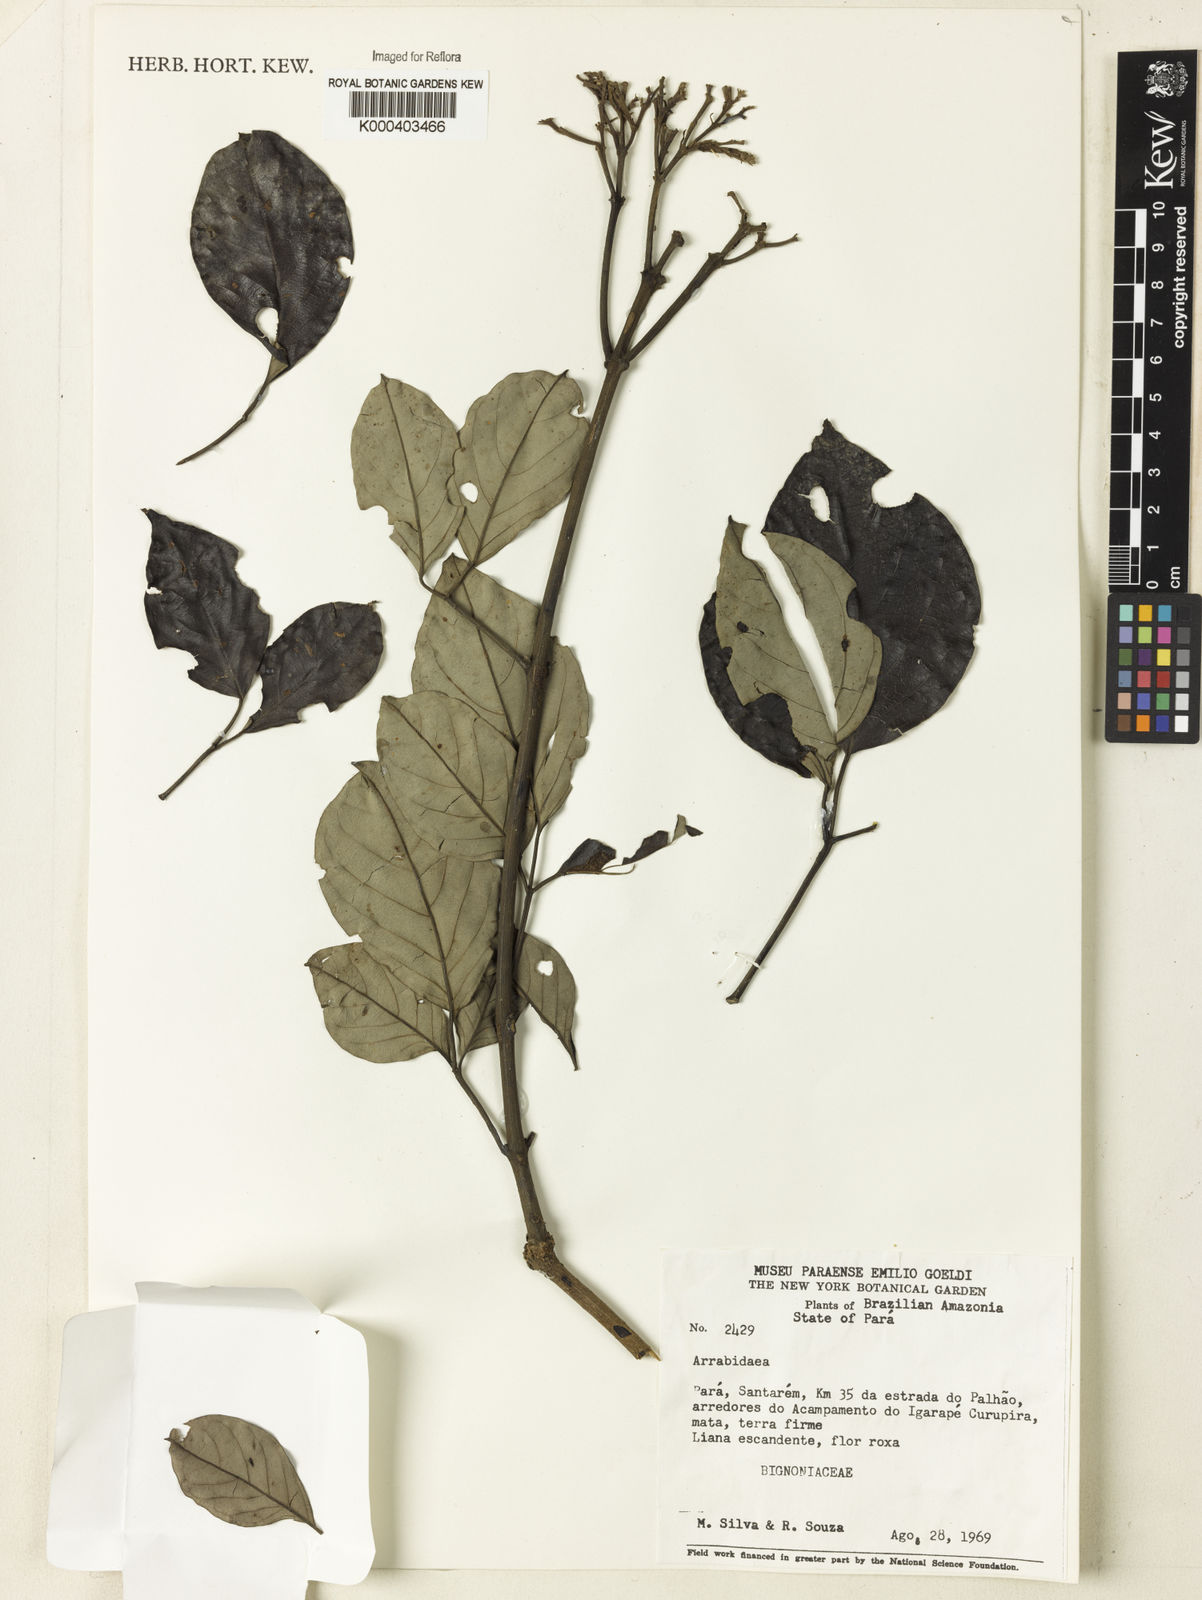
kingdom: Plantae
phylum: Tracheophyta
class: Magnoliopsida
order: Rosales
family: Rhamnaceae
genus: Arrabidaea
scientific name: Arrabidaea
